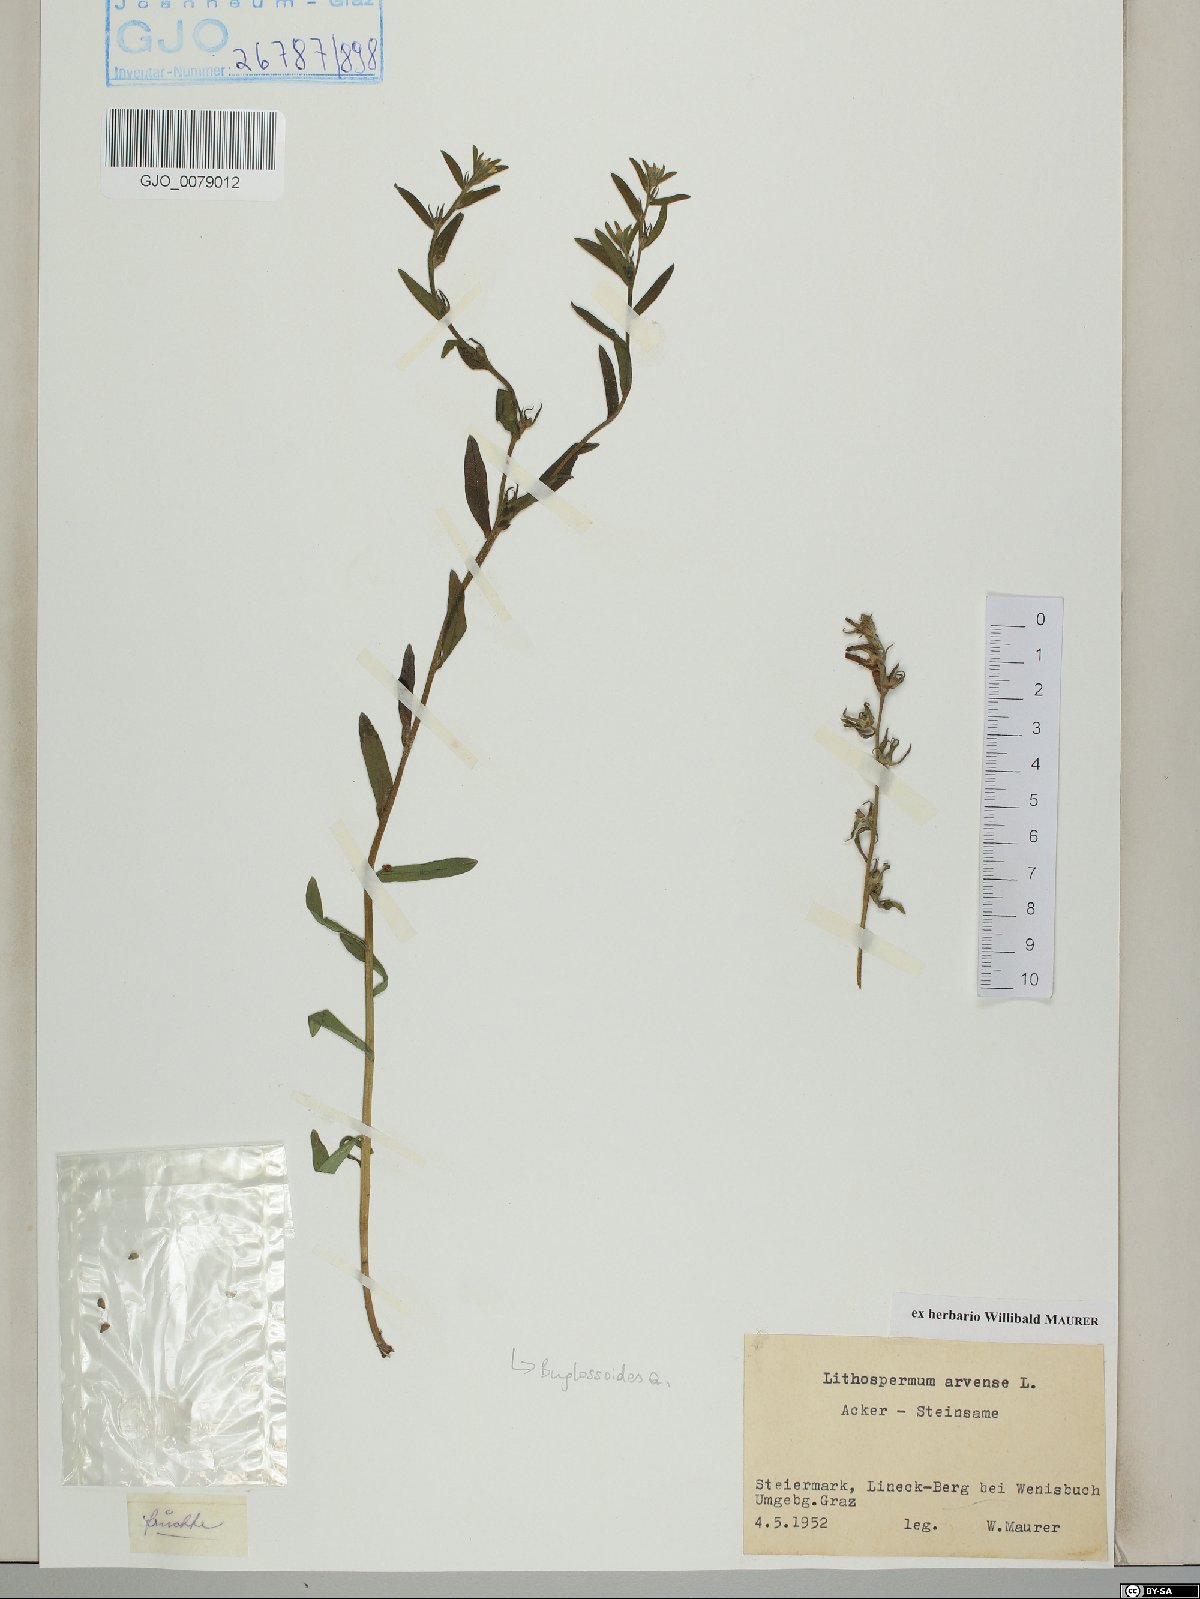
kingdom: Plantae
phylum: Tracheophyta
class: Magnoliopsida
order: Boraginales
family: Boraginaceae
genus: Buglossoides
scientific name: Buglossoides arvensis
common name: Corn gromwell
